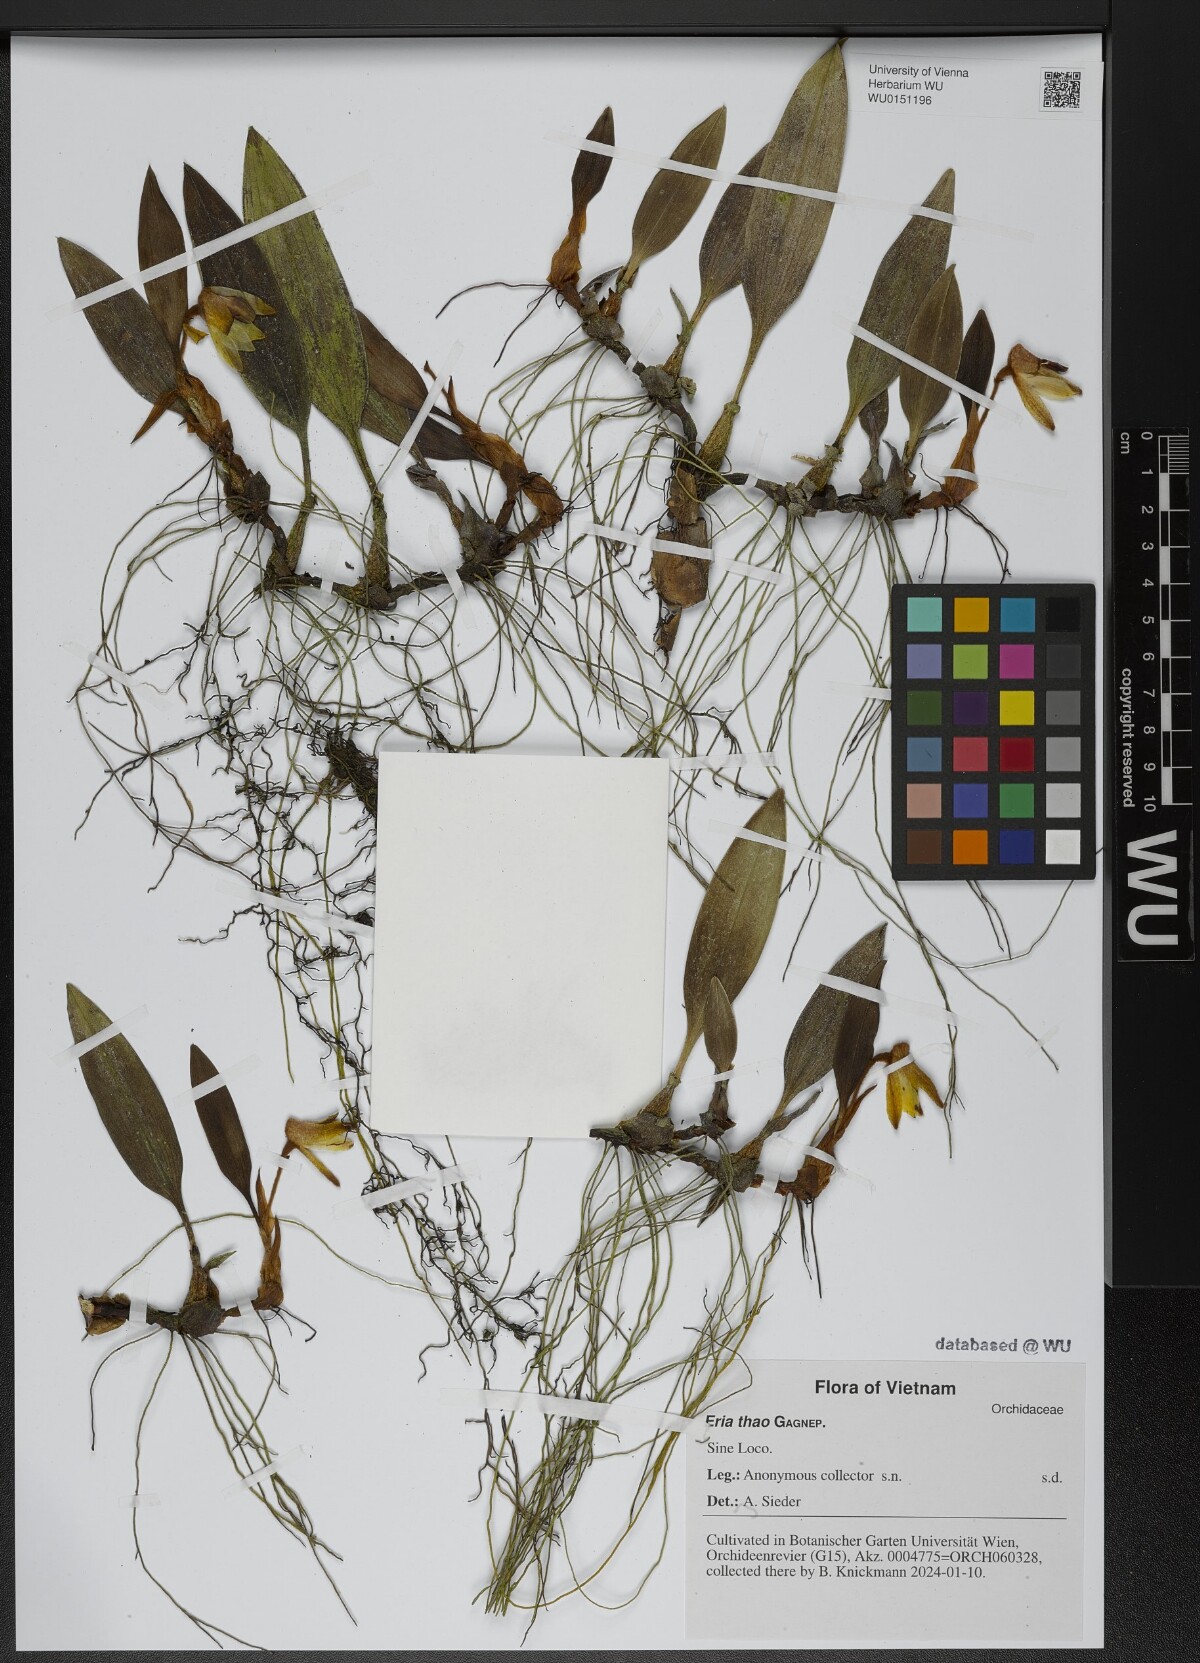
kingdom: Plantae
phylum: Tracheophyta
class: Liliopsida
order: Asparagales
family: Orchidaceae
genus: Campanulorchis
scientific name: Campanulorchis thao
